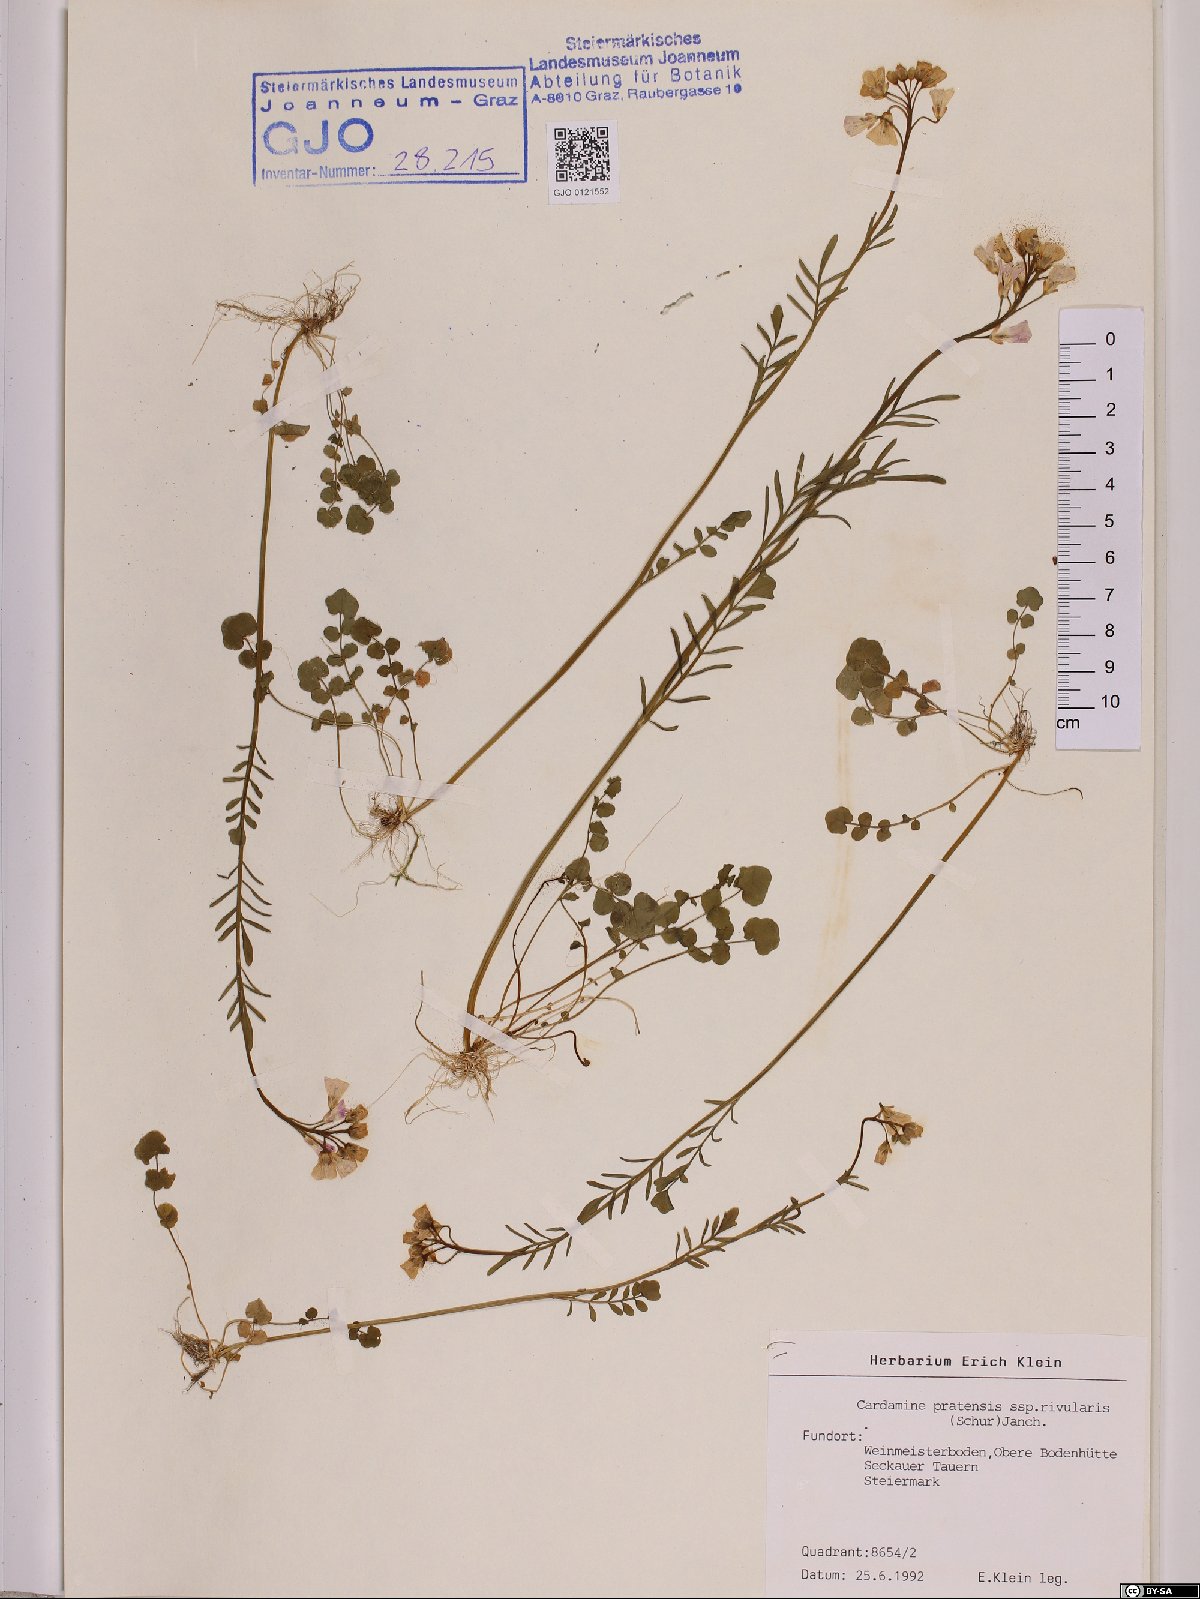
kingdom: Plantae
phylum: Tracheophyta
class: Magnoliopsida
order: Brassicales
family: Brassicaceae
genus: Cardamine
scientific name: Cardamine pratensis
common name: Cuckoo flower
